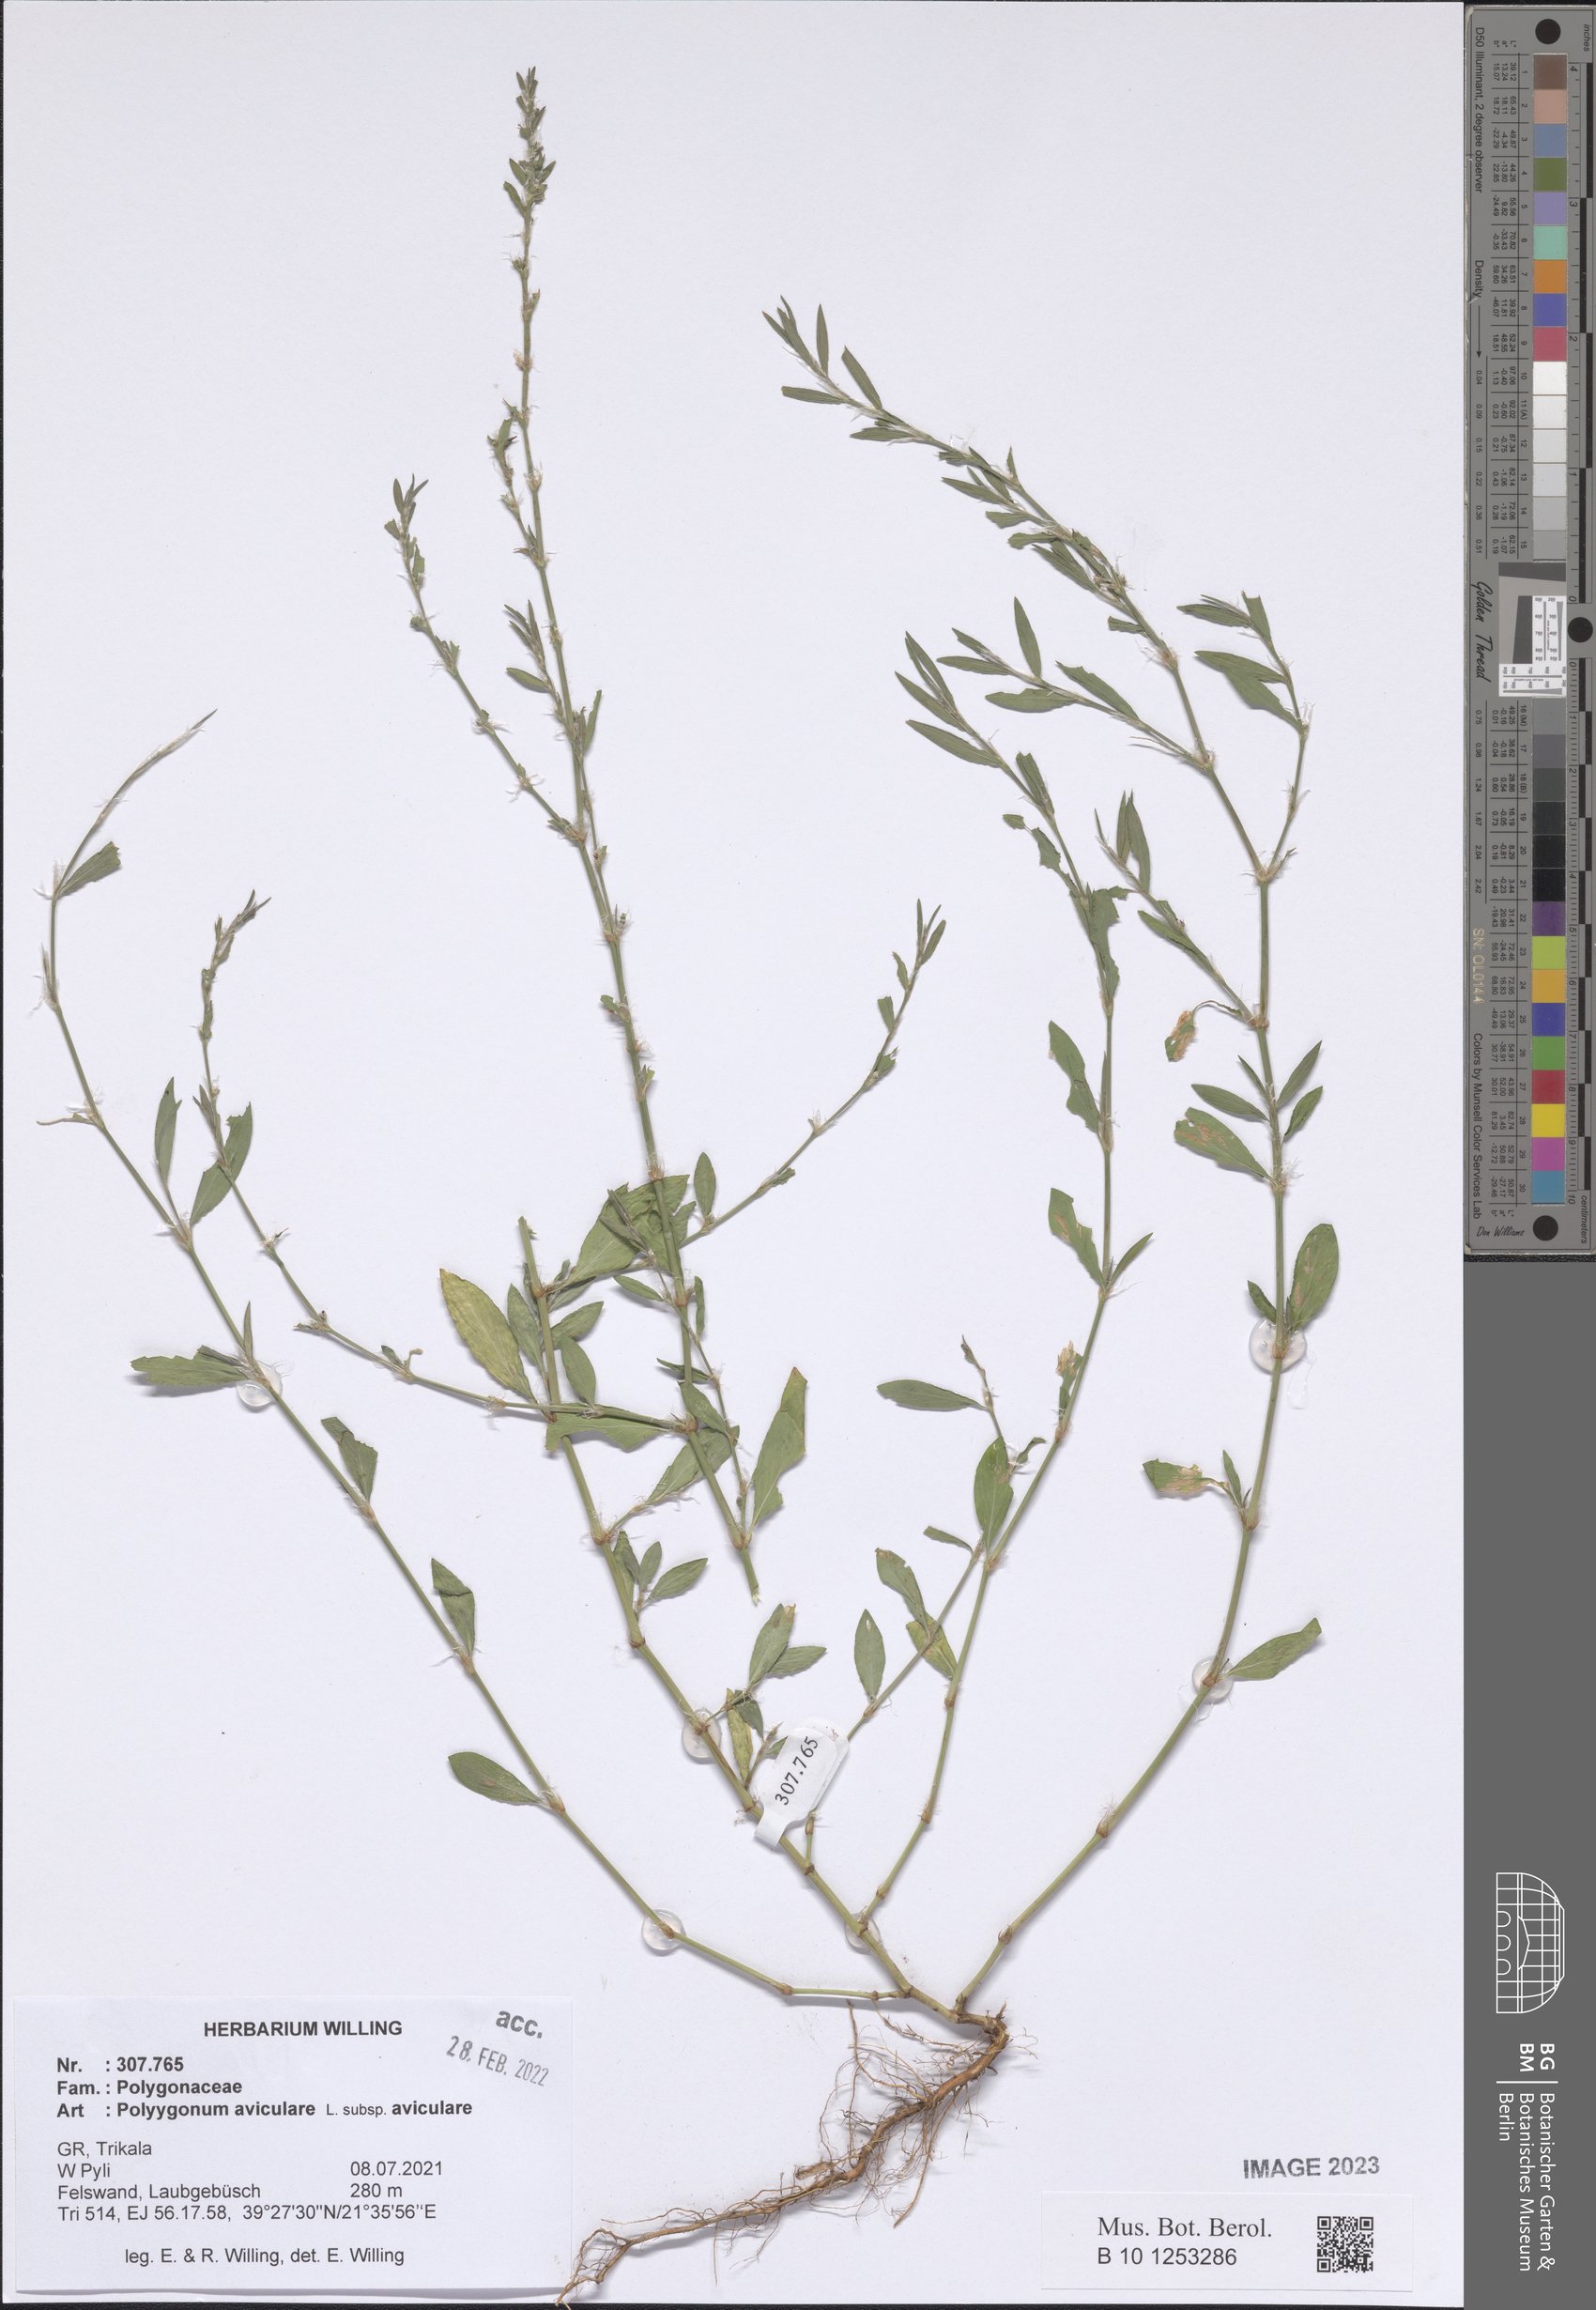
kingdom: Plantae
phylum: Tracheophyta
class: Magnoliopsida
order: Caryophyllales
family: Polygonaceae
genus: Polygonum
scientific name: Polygonum aviculare
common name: Prostrate knotweed
